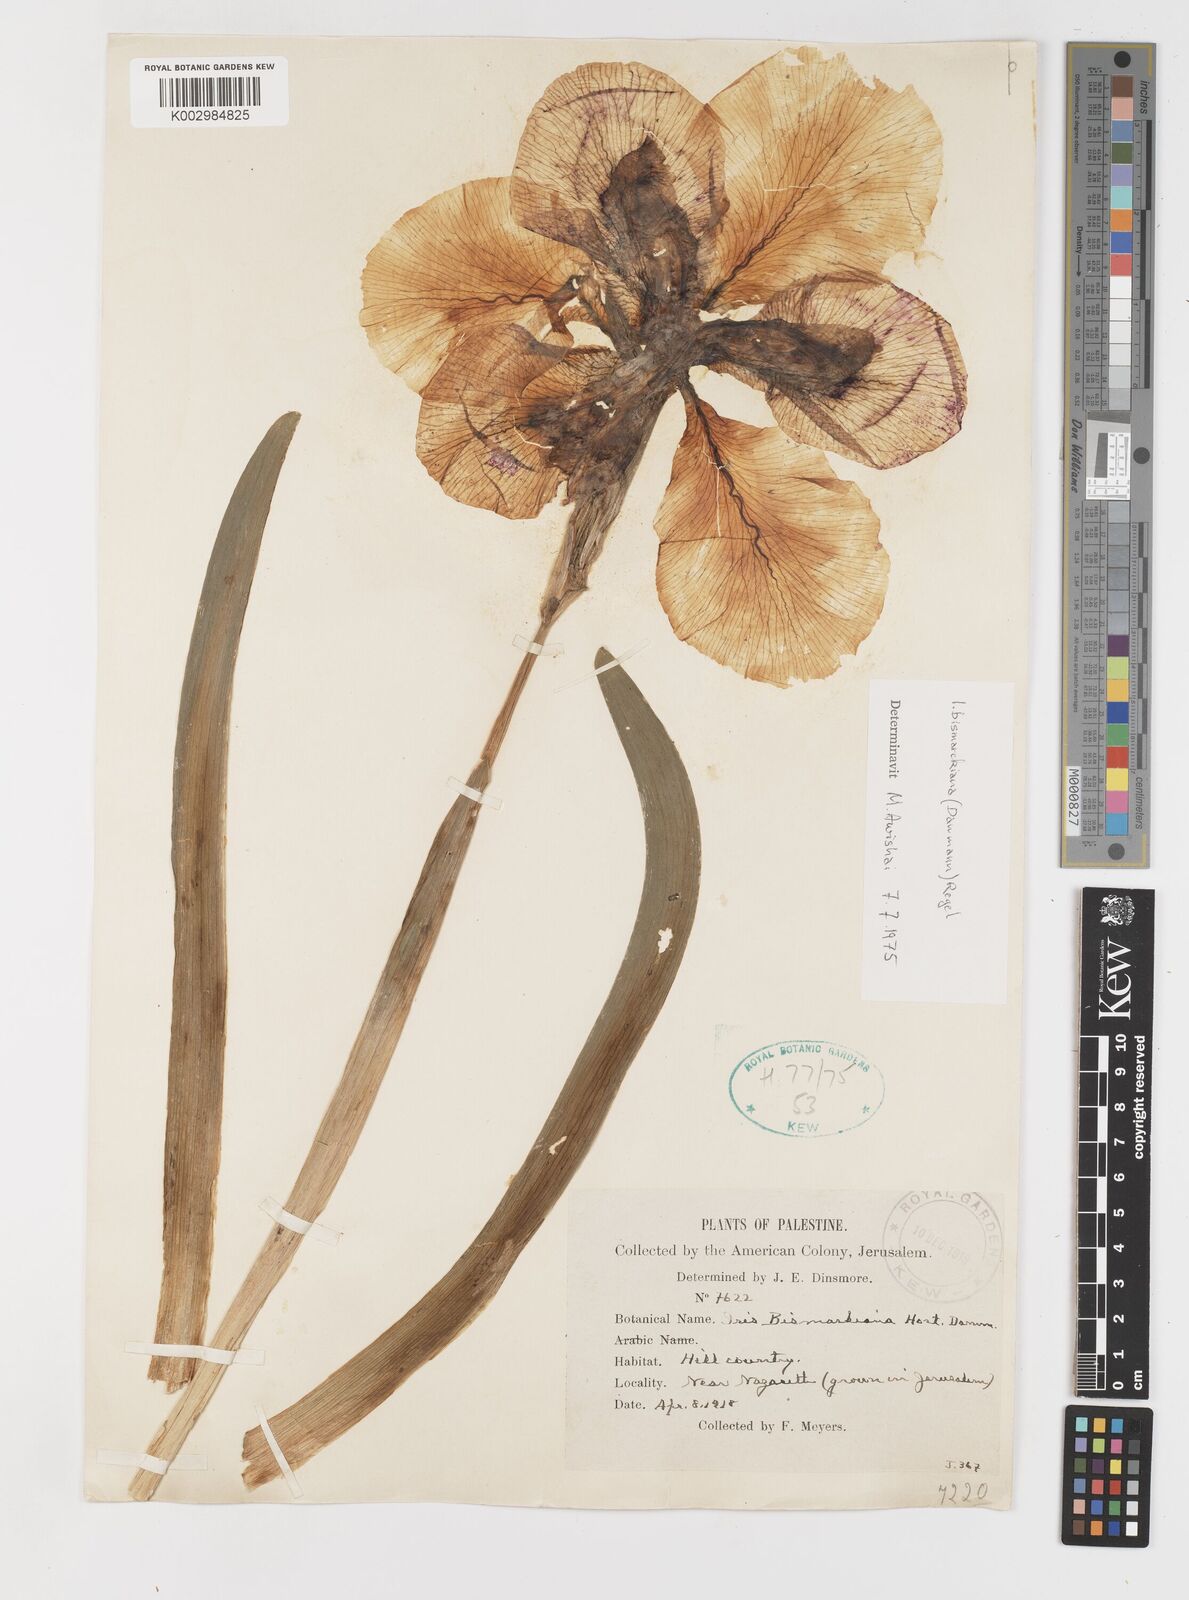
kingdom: Plantae
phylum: Tracheophyta
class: Liliopsida
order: Asparagales
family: Iridaceae
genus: Iris
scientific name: Iris bismarckiana
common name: Nazareth iris
